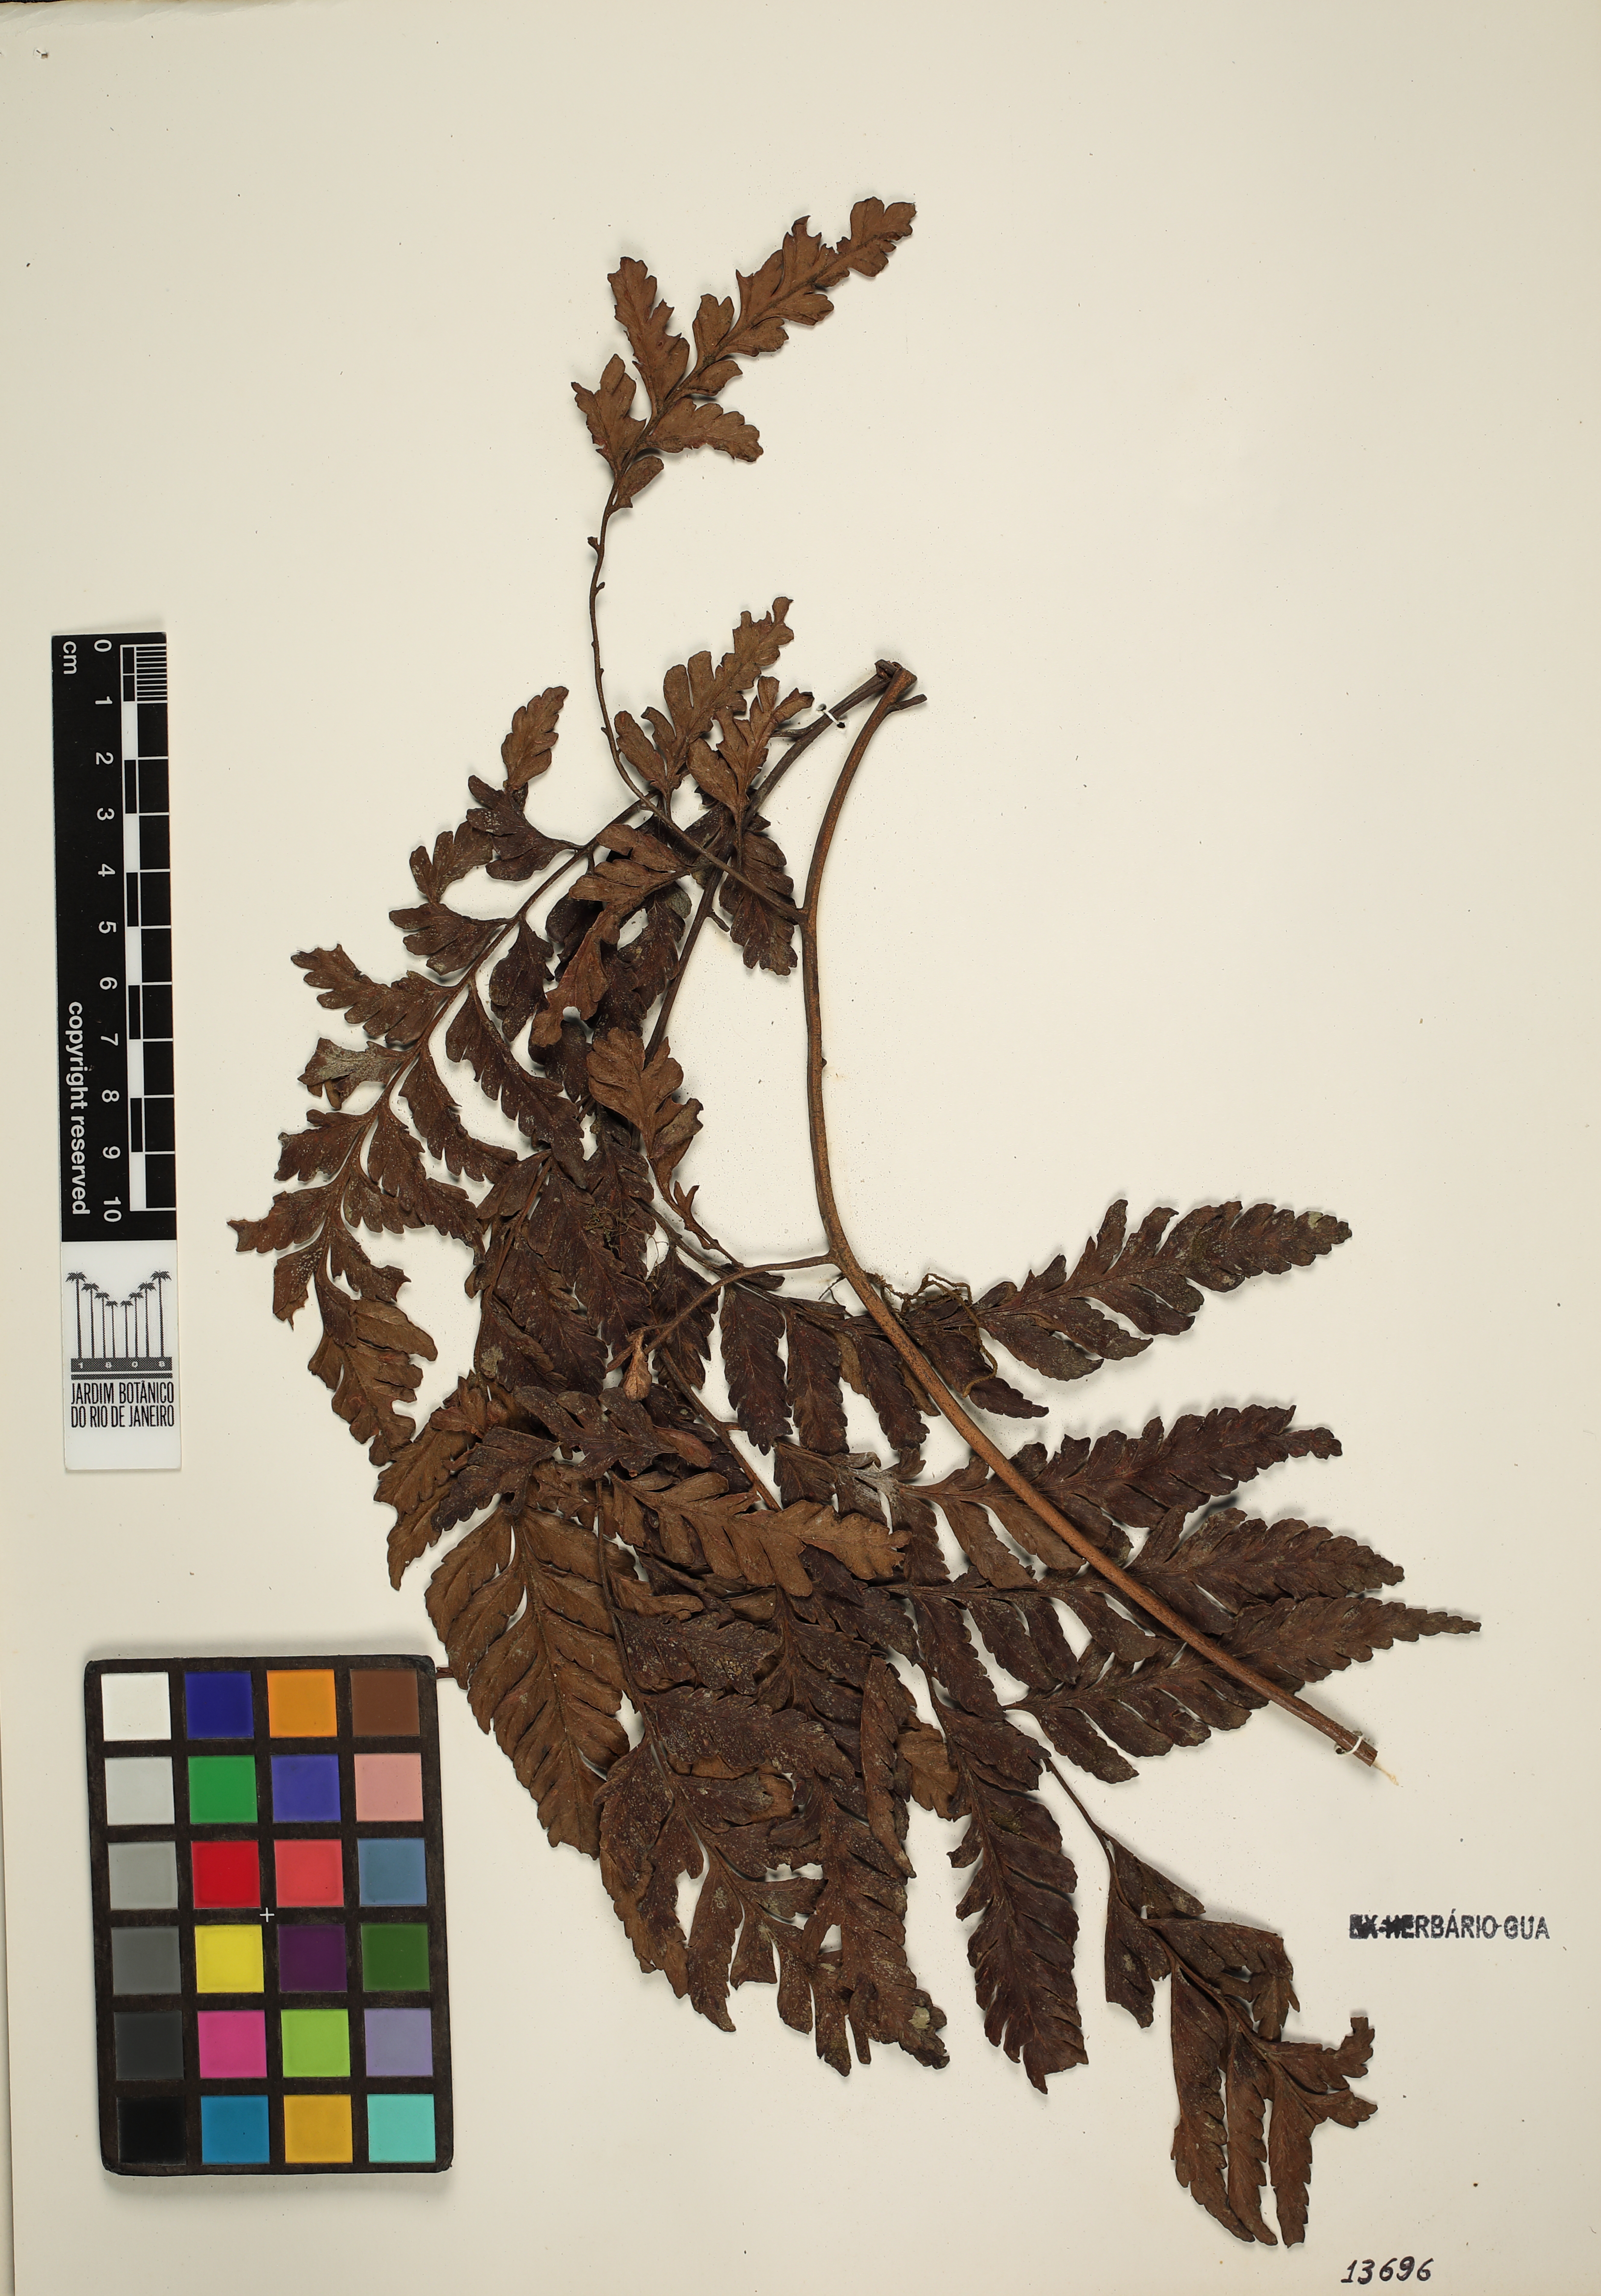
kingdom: Plantae
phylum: Tracheophyta
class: Polypodiopsida
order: Polypodiales
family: Dryopteridaceae
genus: Polybotrya
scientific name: Polybotrya cylindrica
